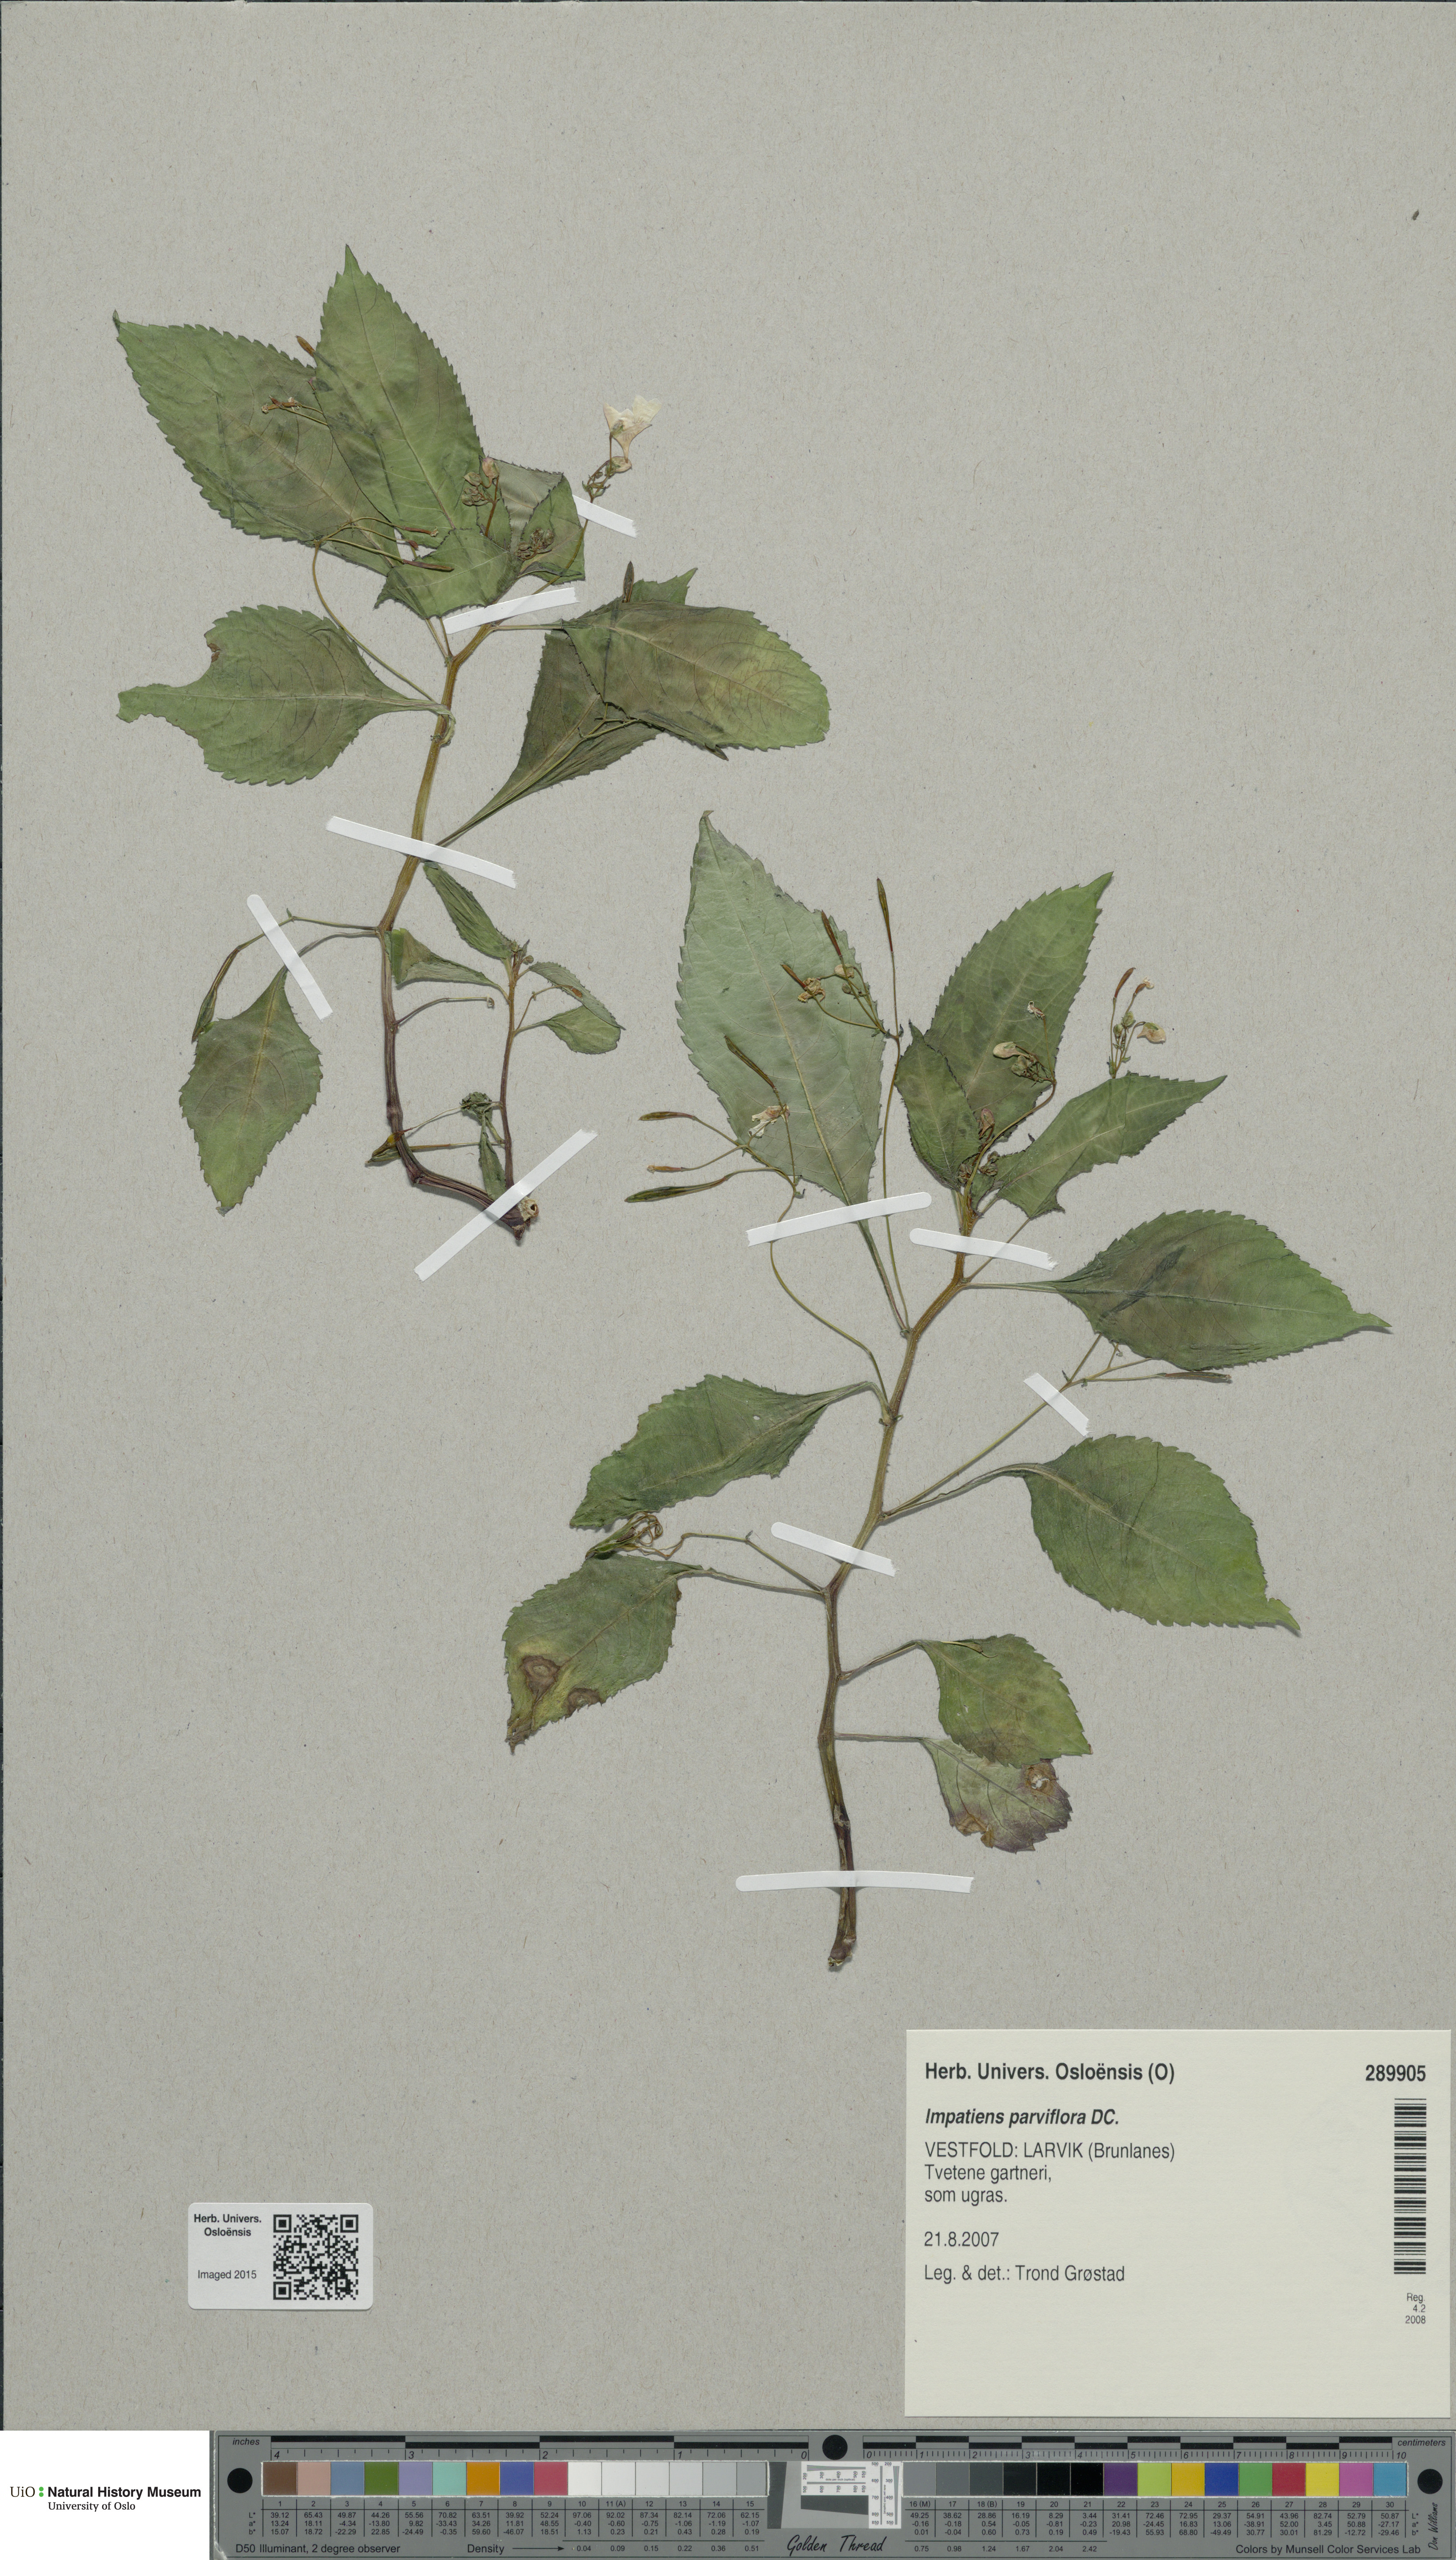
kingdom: Plantae
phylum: Tracheophyta
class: Magnoliopsida
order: Ericales
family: Balsaminaceae
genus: Impatiens
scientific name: Impatiens parviflora
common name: Small balsam
